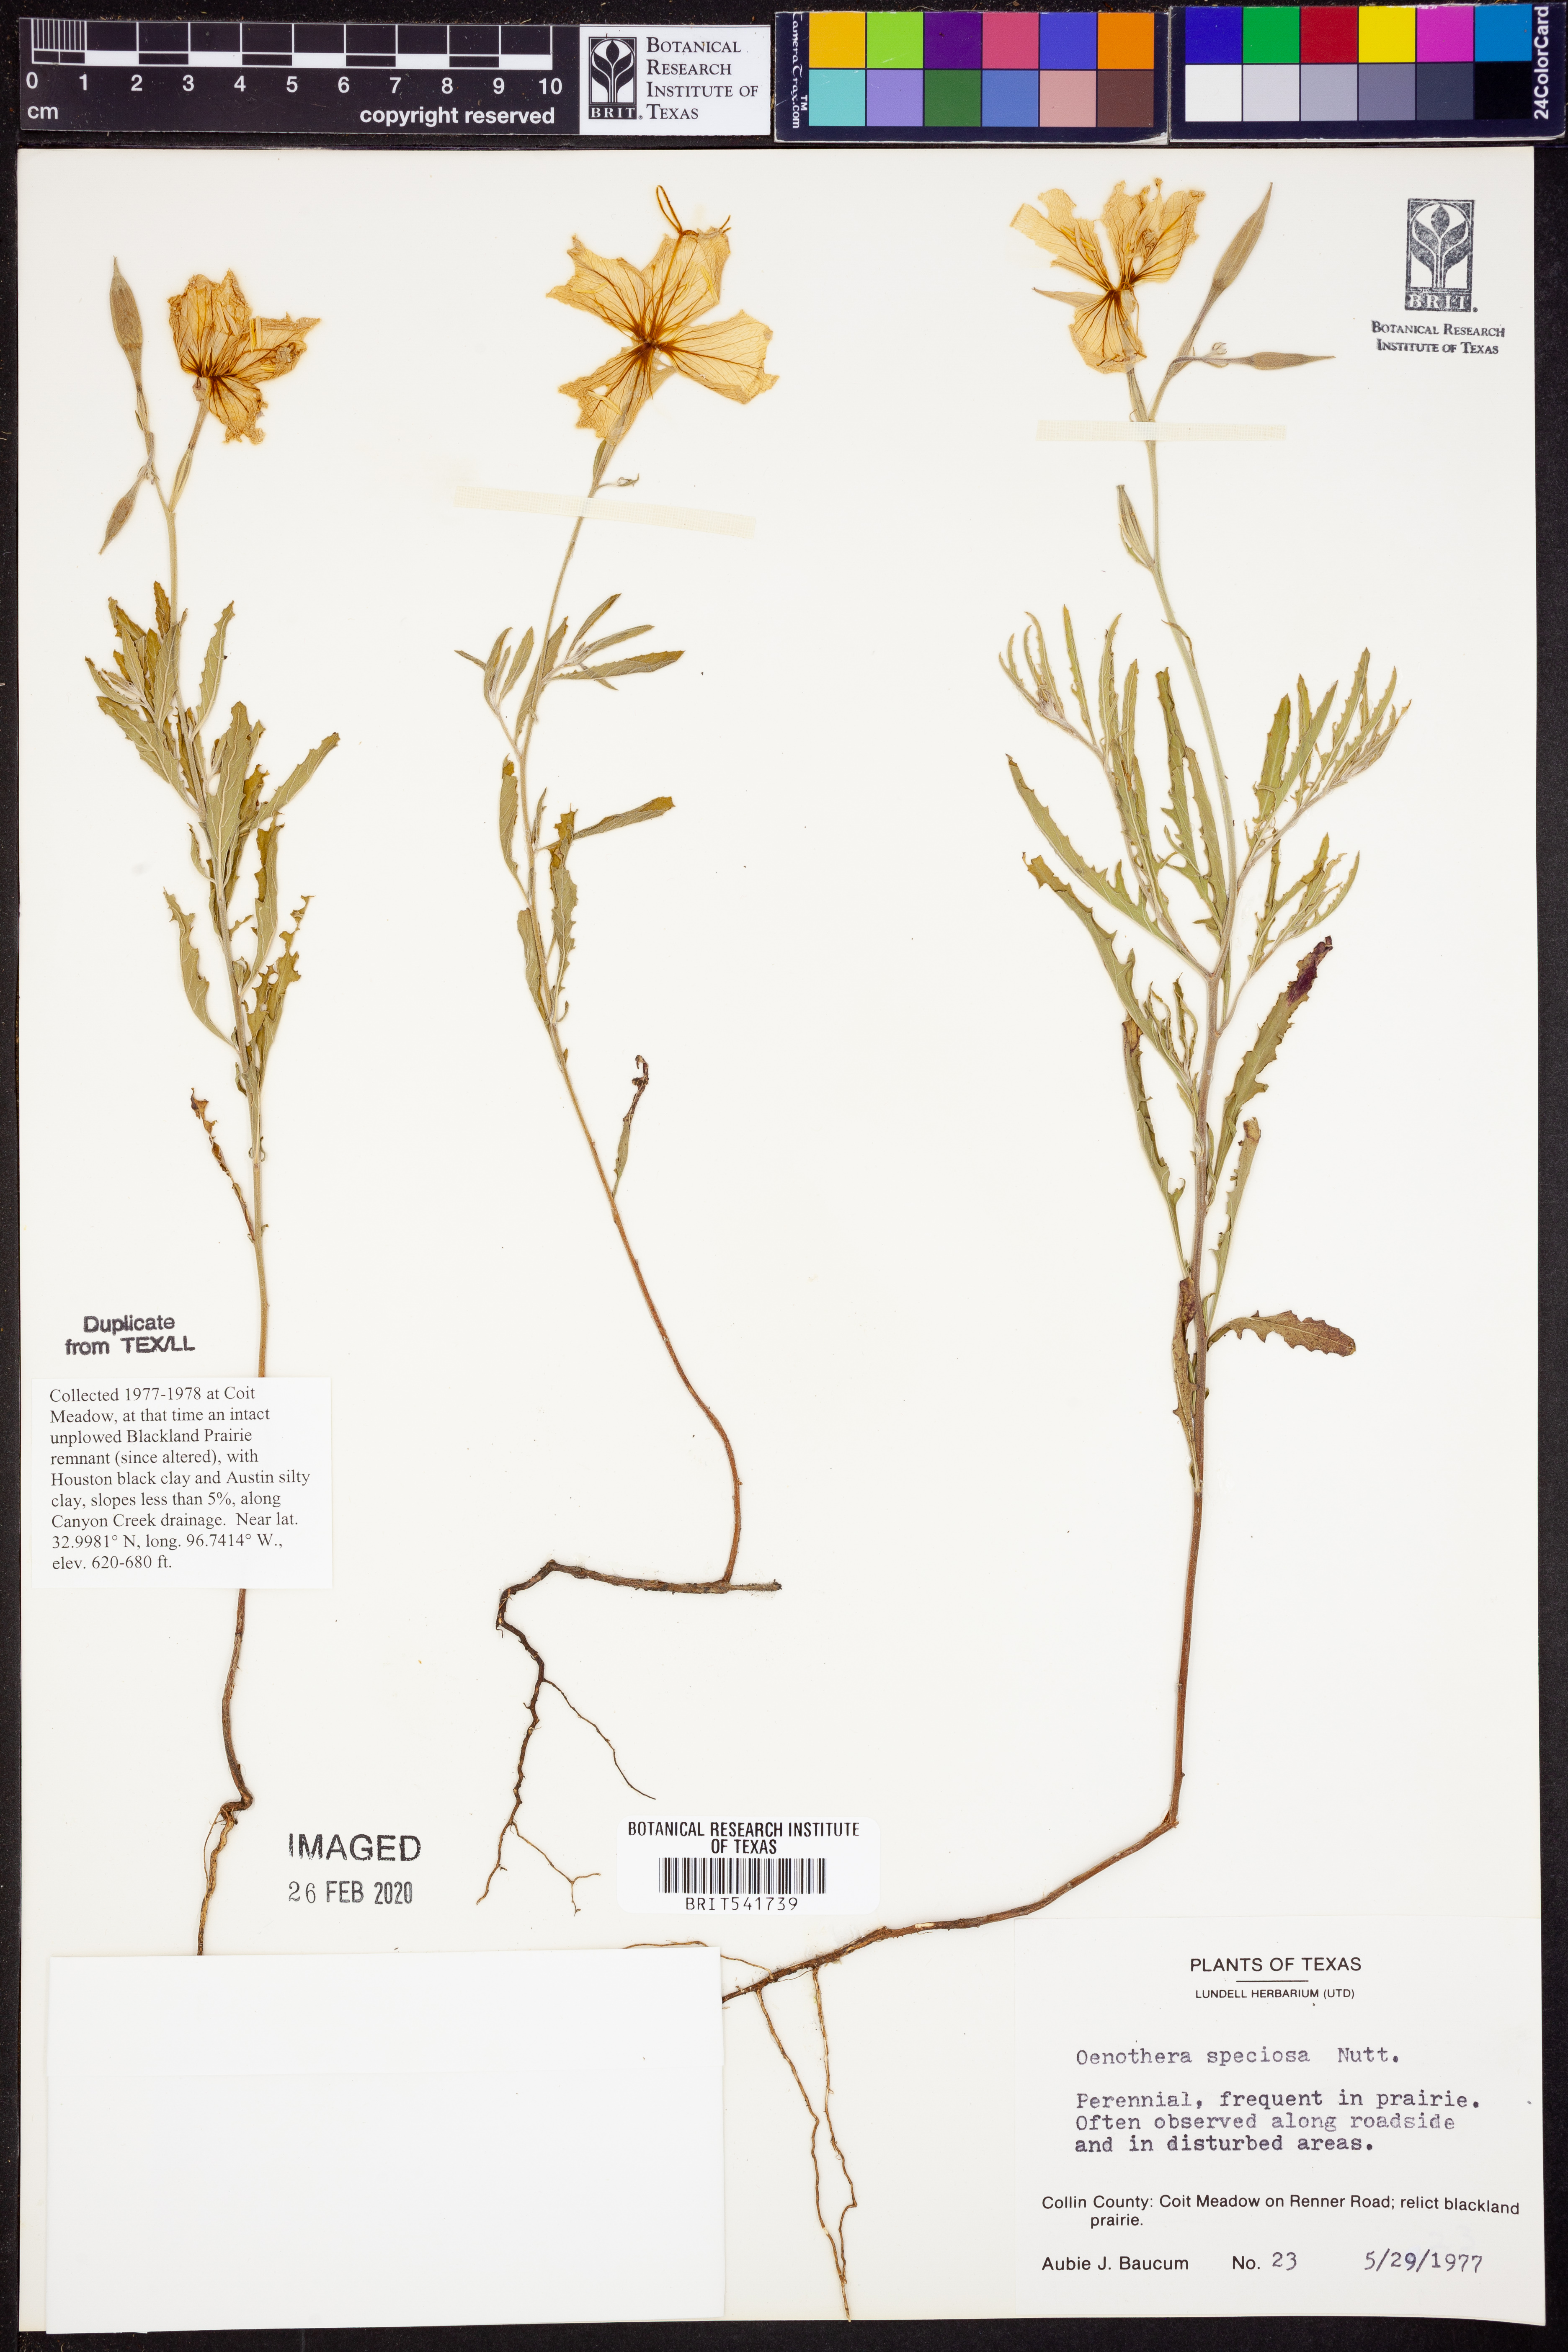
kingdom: Plantae
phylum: Tracheophyta
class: Magnoliopsida
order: Myrtales
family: Onagraceae
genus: Oenothera
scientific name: Oenothera speciosa
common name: White evening-primrose
